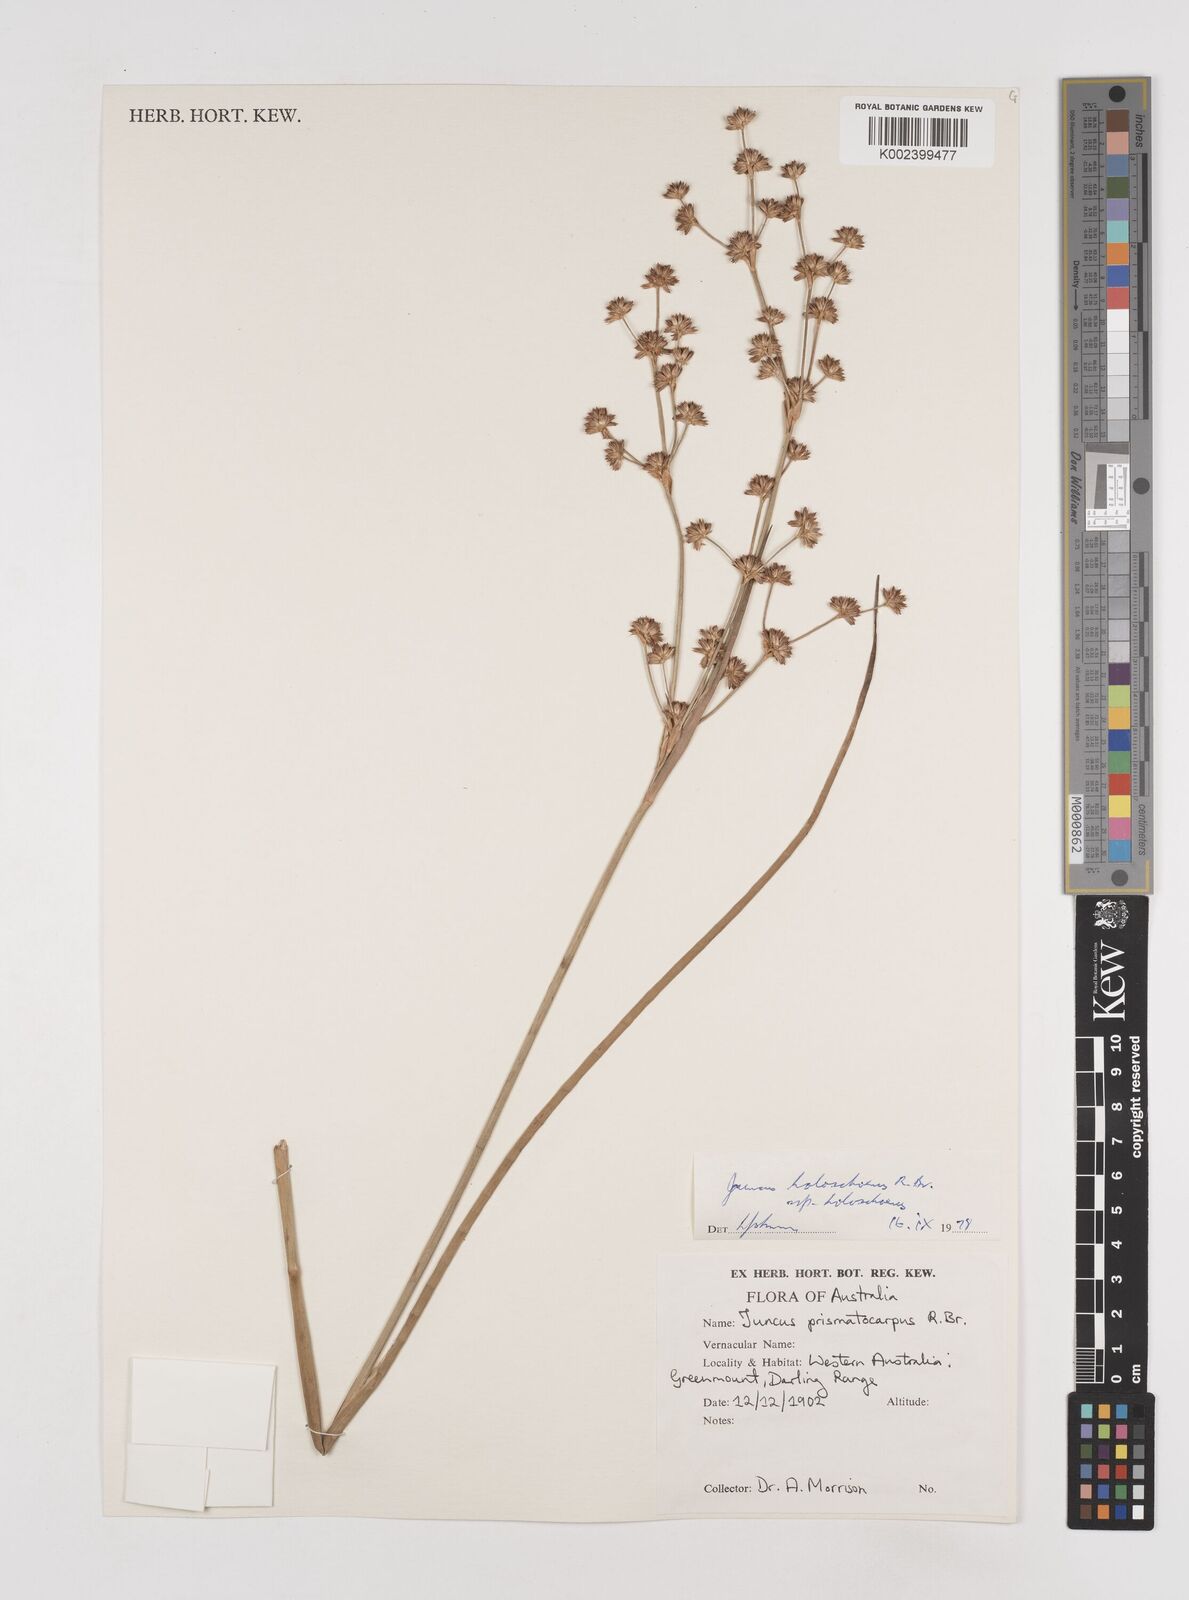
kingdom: Plantae
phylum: Tracheophyta
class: Liliopsida
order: Poales
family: Juncaceae
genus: Juncus
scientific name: Juncus holoschoenus
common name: Joint-leaf rush
